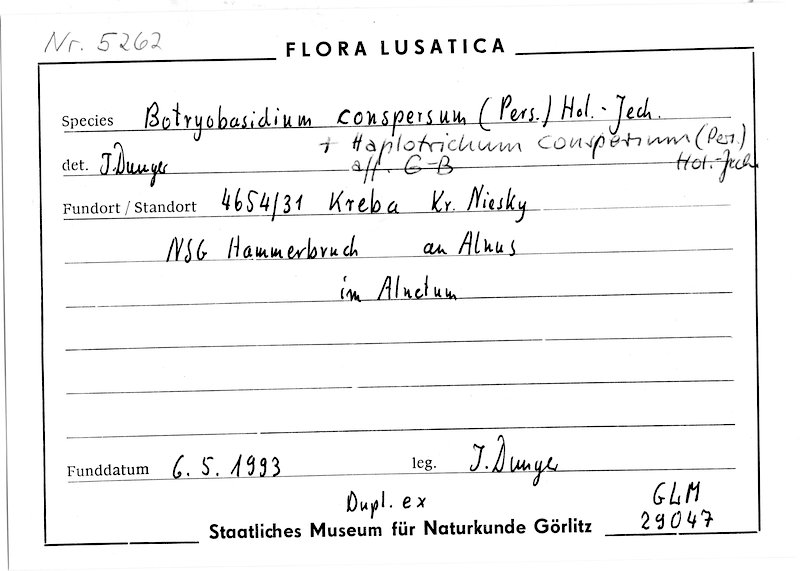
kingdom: Plantae
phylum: Tracheophyta
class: Magnoliopsida
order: Fagales
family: Betulaceae
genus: Alnus
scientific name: Alnus
